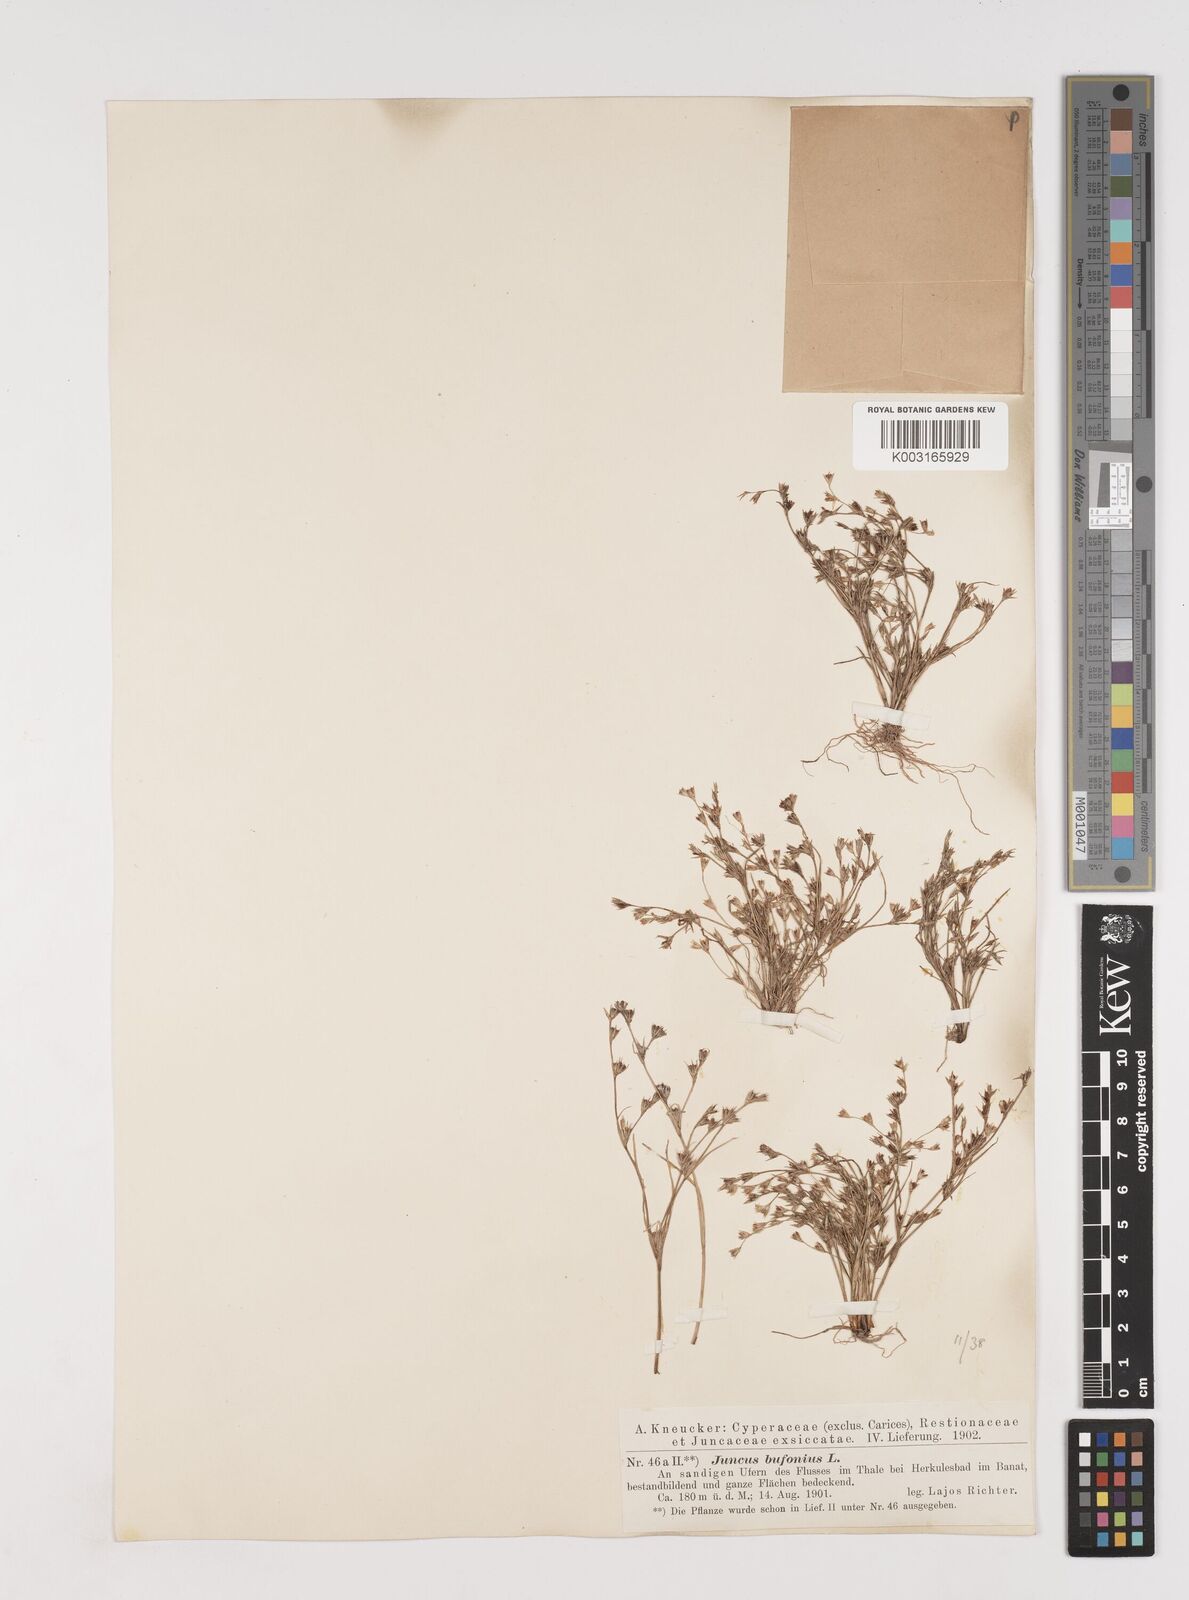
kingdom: Plantae
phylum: Tracheophyta
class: Liliopsida
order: Poales
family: Juncaceae
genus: Juncus
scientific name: Juncus bufonius
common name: Toad rush
